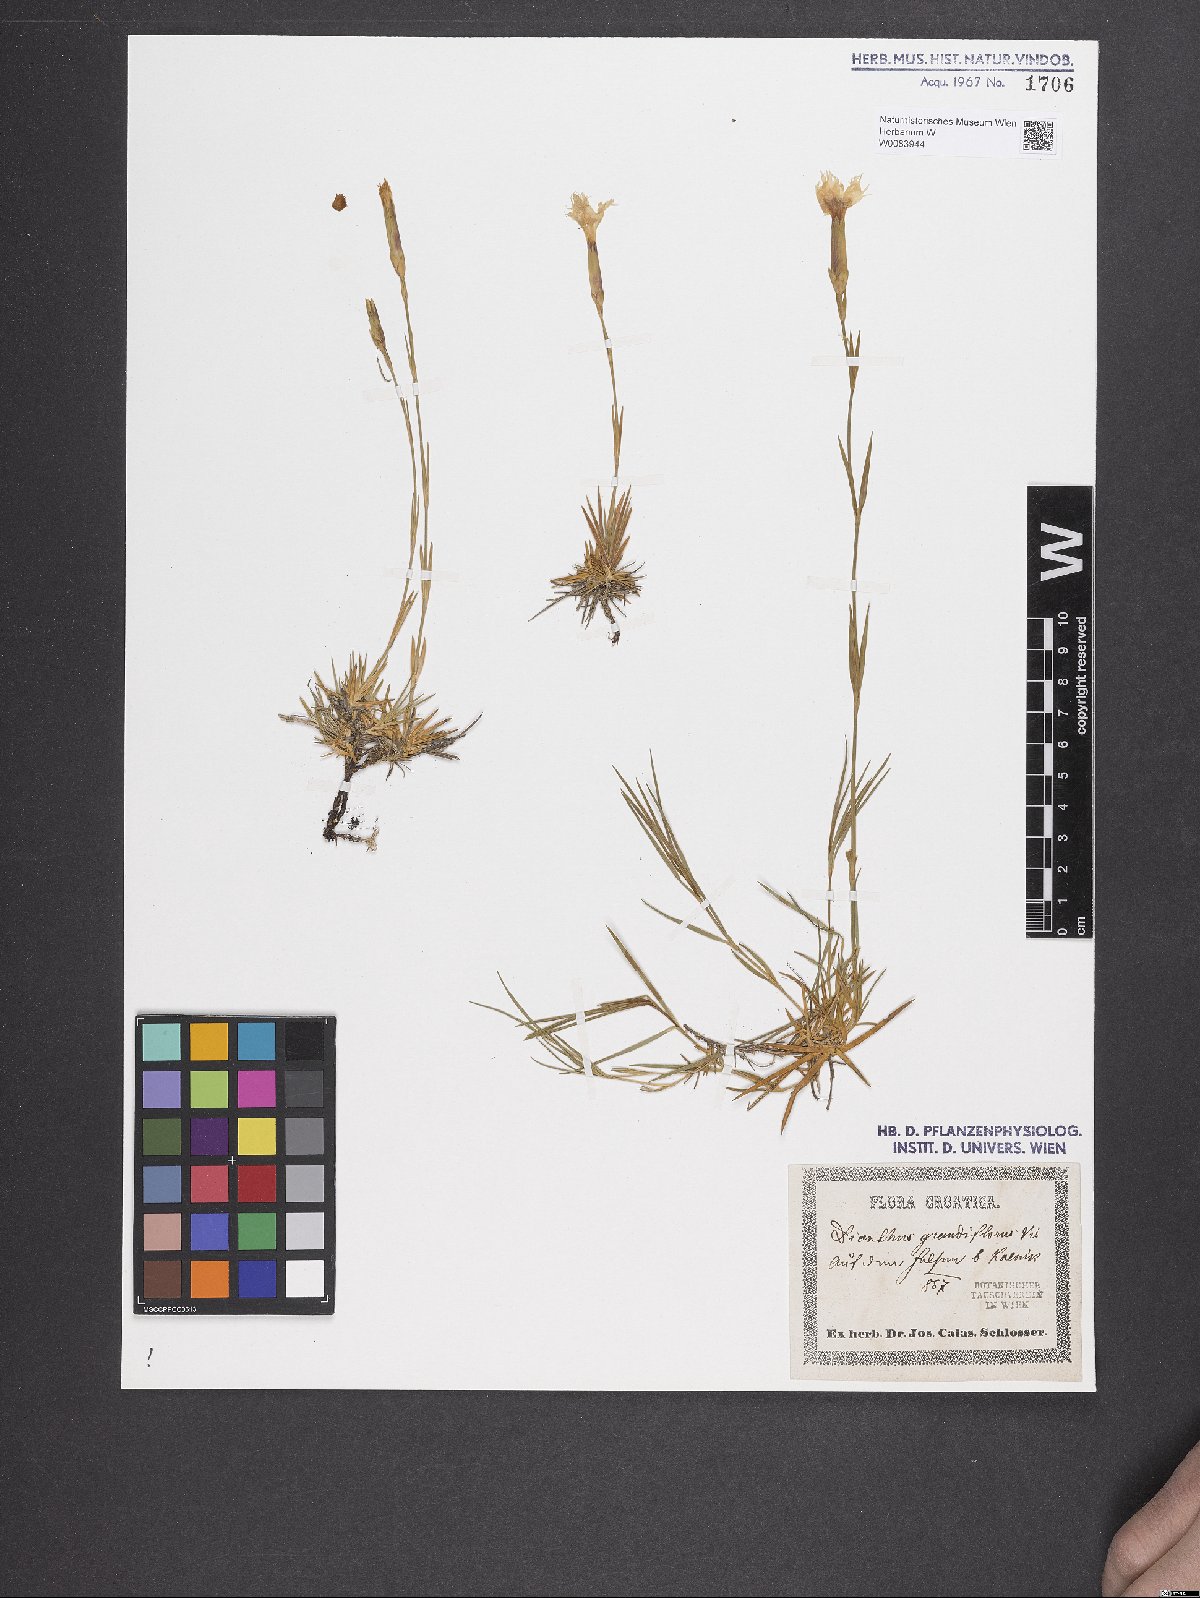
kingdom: Plantae
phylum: Tracheophyta
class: Magnoliopsida
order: Caryophyllales
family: Caryophyllaceae
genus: Dianthus
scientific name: Dianthus grandiflorus
